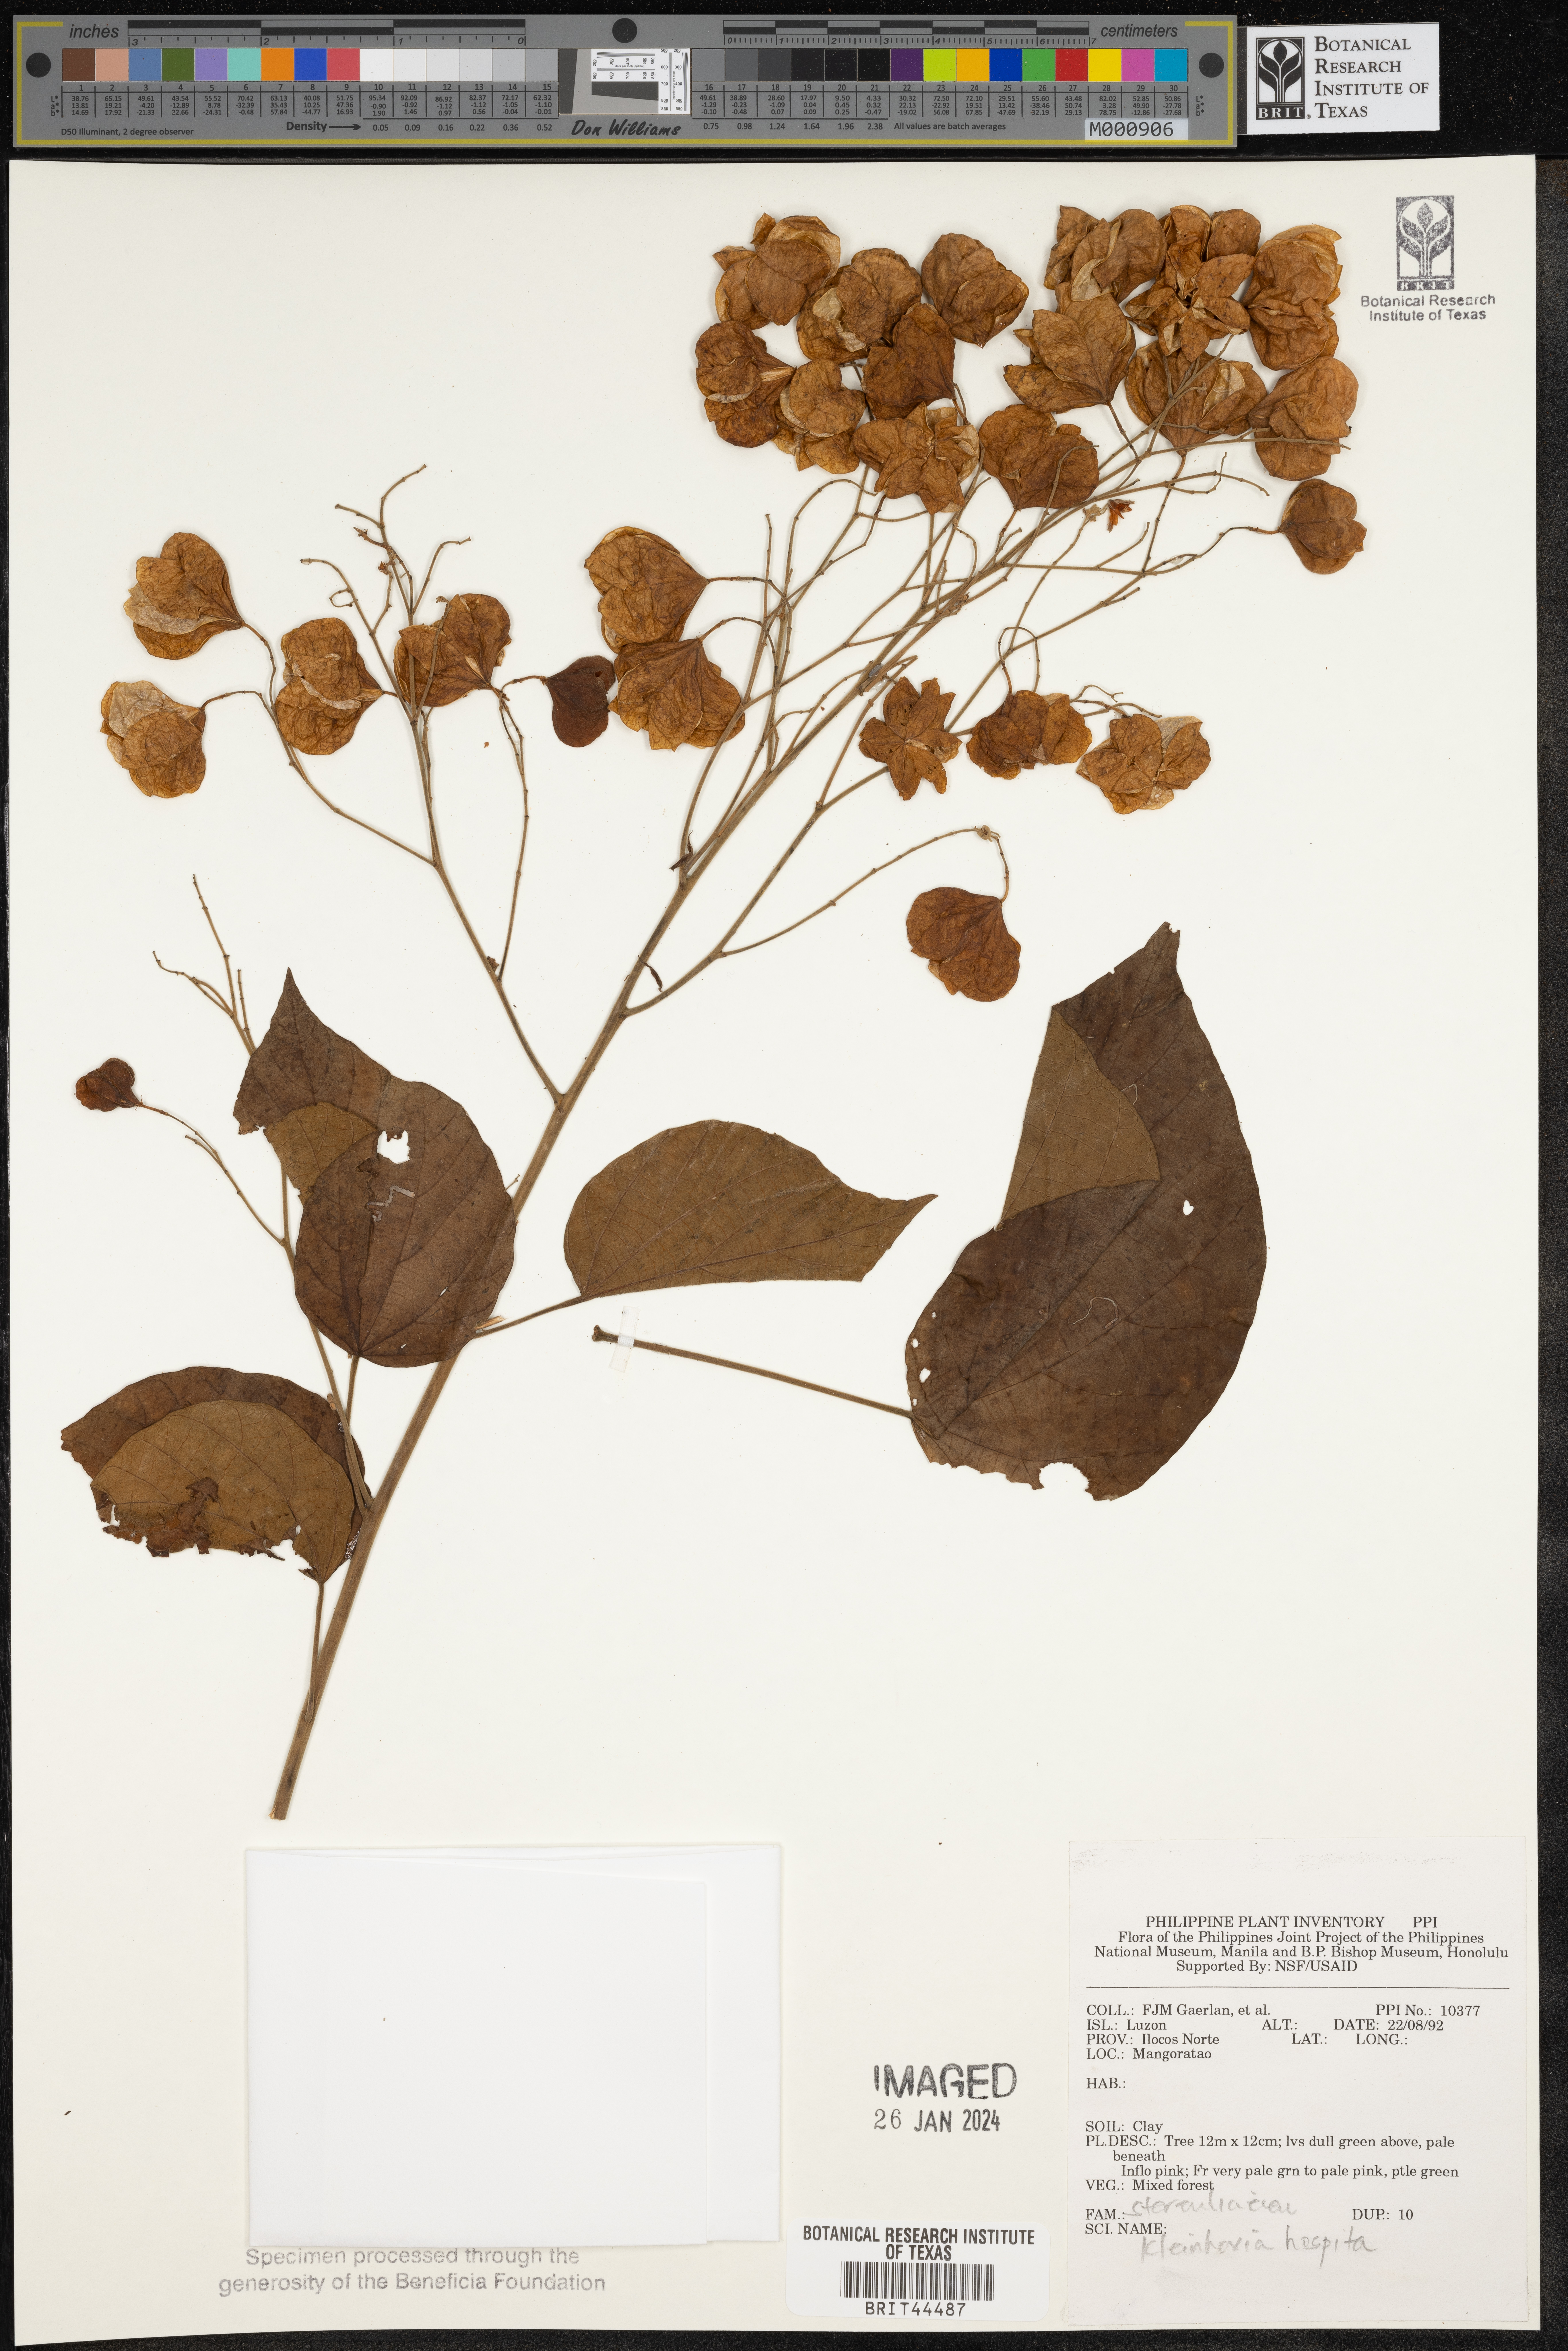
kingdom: Plantae
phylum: Tracheophyta
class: Magnoliopsida
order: Malvales
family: Malvaceae
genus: Kleinhovia
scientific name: Kleinhovia hospita
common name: Guest-tree
